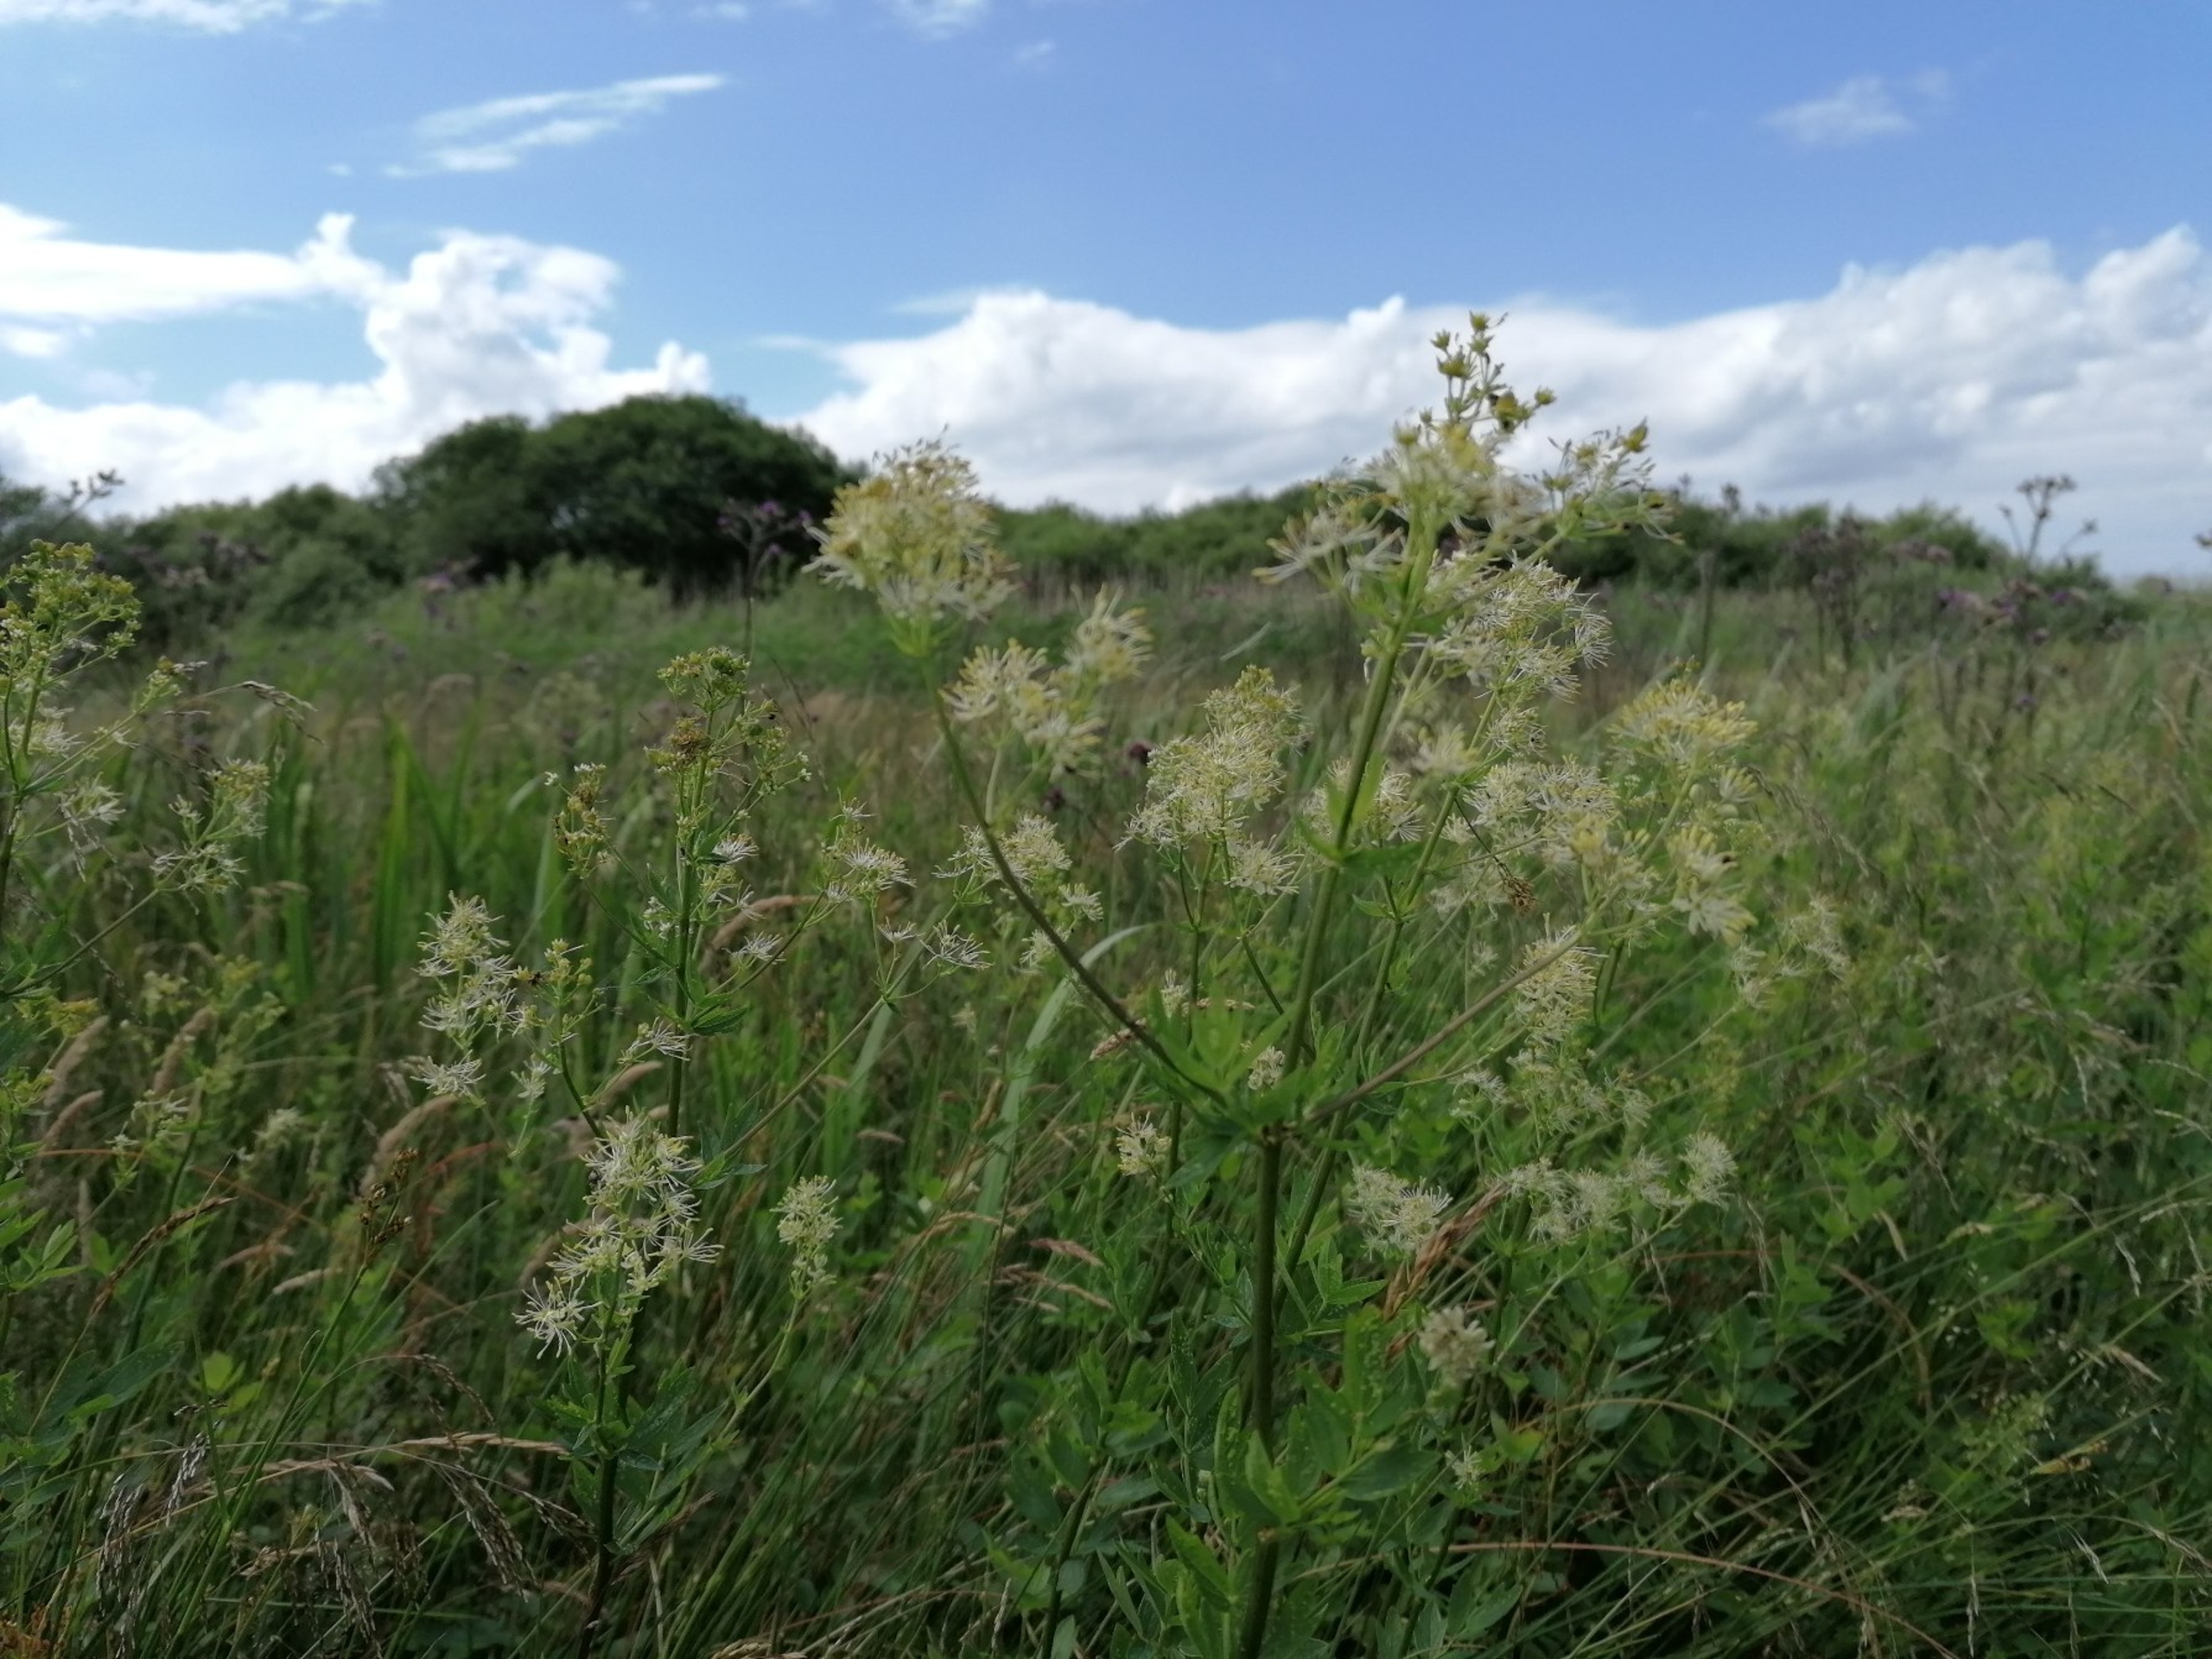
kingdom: Plantae
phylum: Tracheophyta
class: Magnoliopsida
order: Ranunculales
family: Ranunculaceae
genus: Thalictrum
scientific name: Thalictrum flavum
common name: Gul frøstjerne
